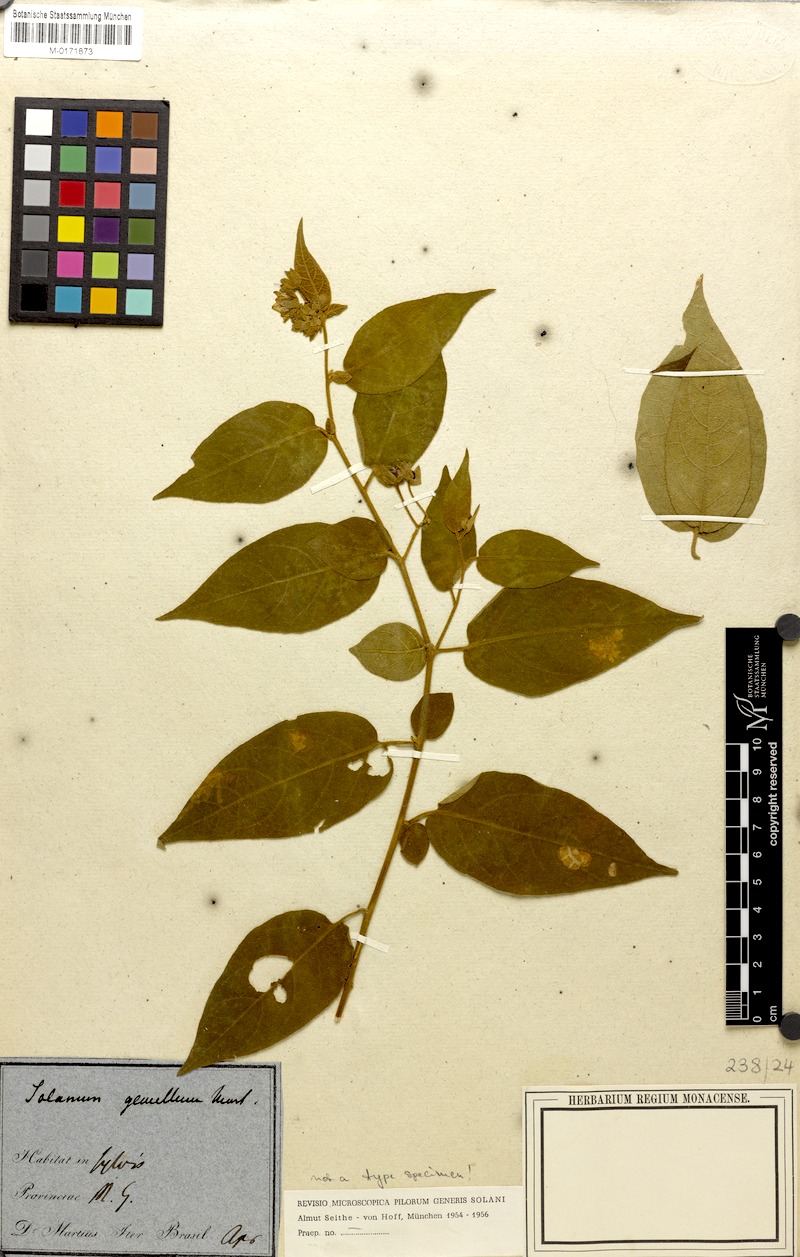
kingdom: Plantae
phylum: Tracheophyta
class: Magnoliopsida
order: Solanales
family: Solanaceae
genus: Solanum
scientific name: Solanum didymum
